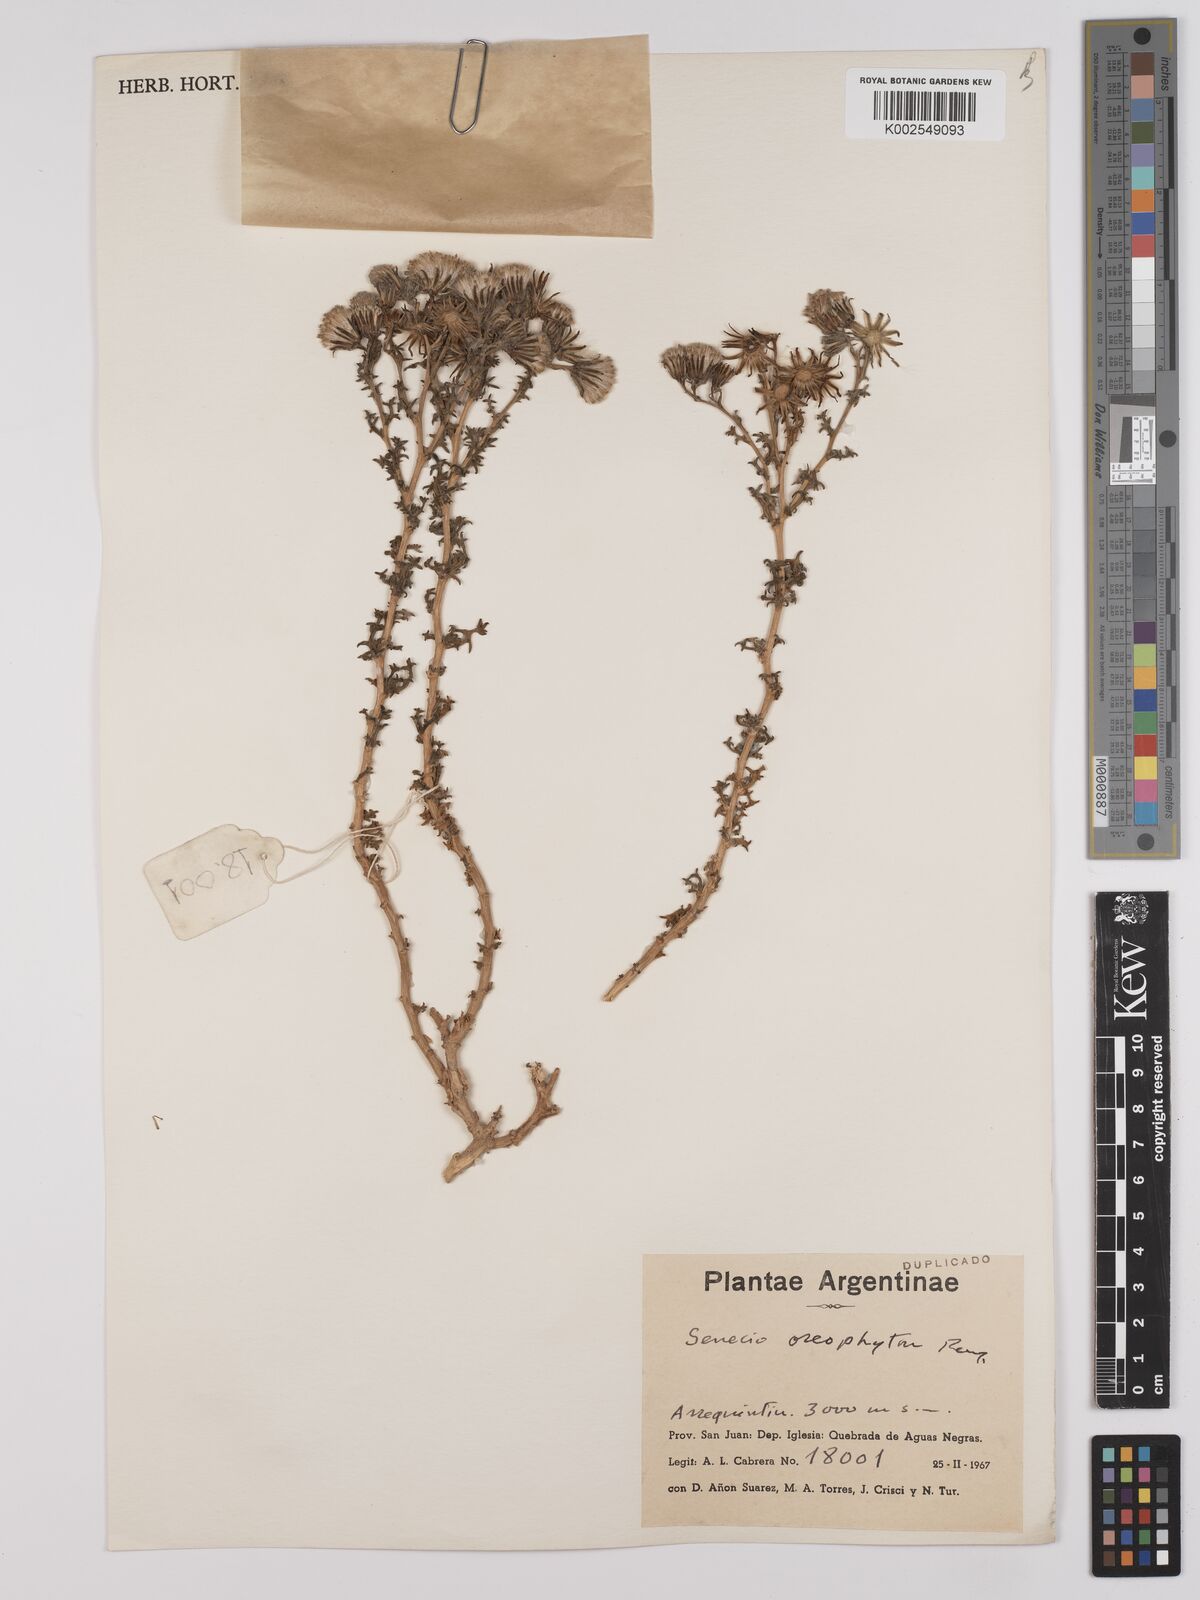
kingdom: Plantae
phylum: Tracheophyta
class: Magnoliopsida
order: Asterales
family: Asteraceae
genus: Senecio
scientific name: Senecio oreophyton
